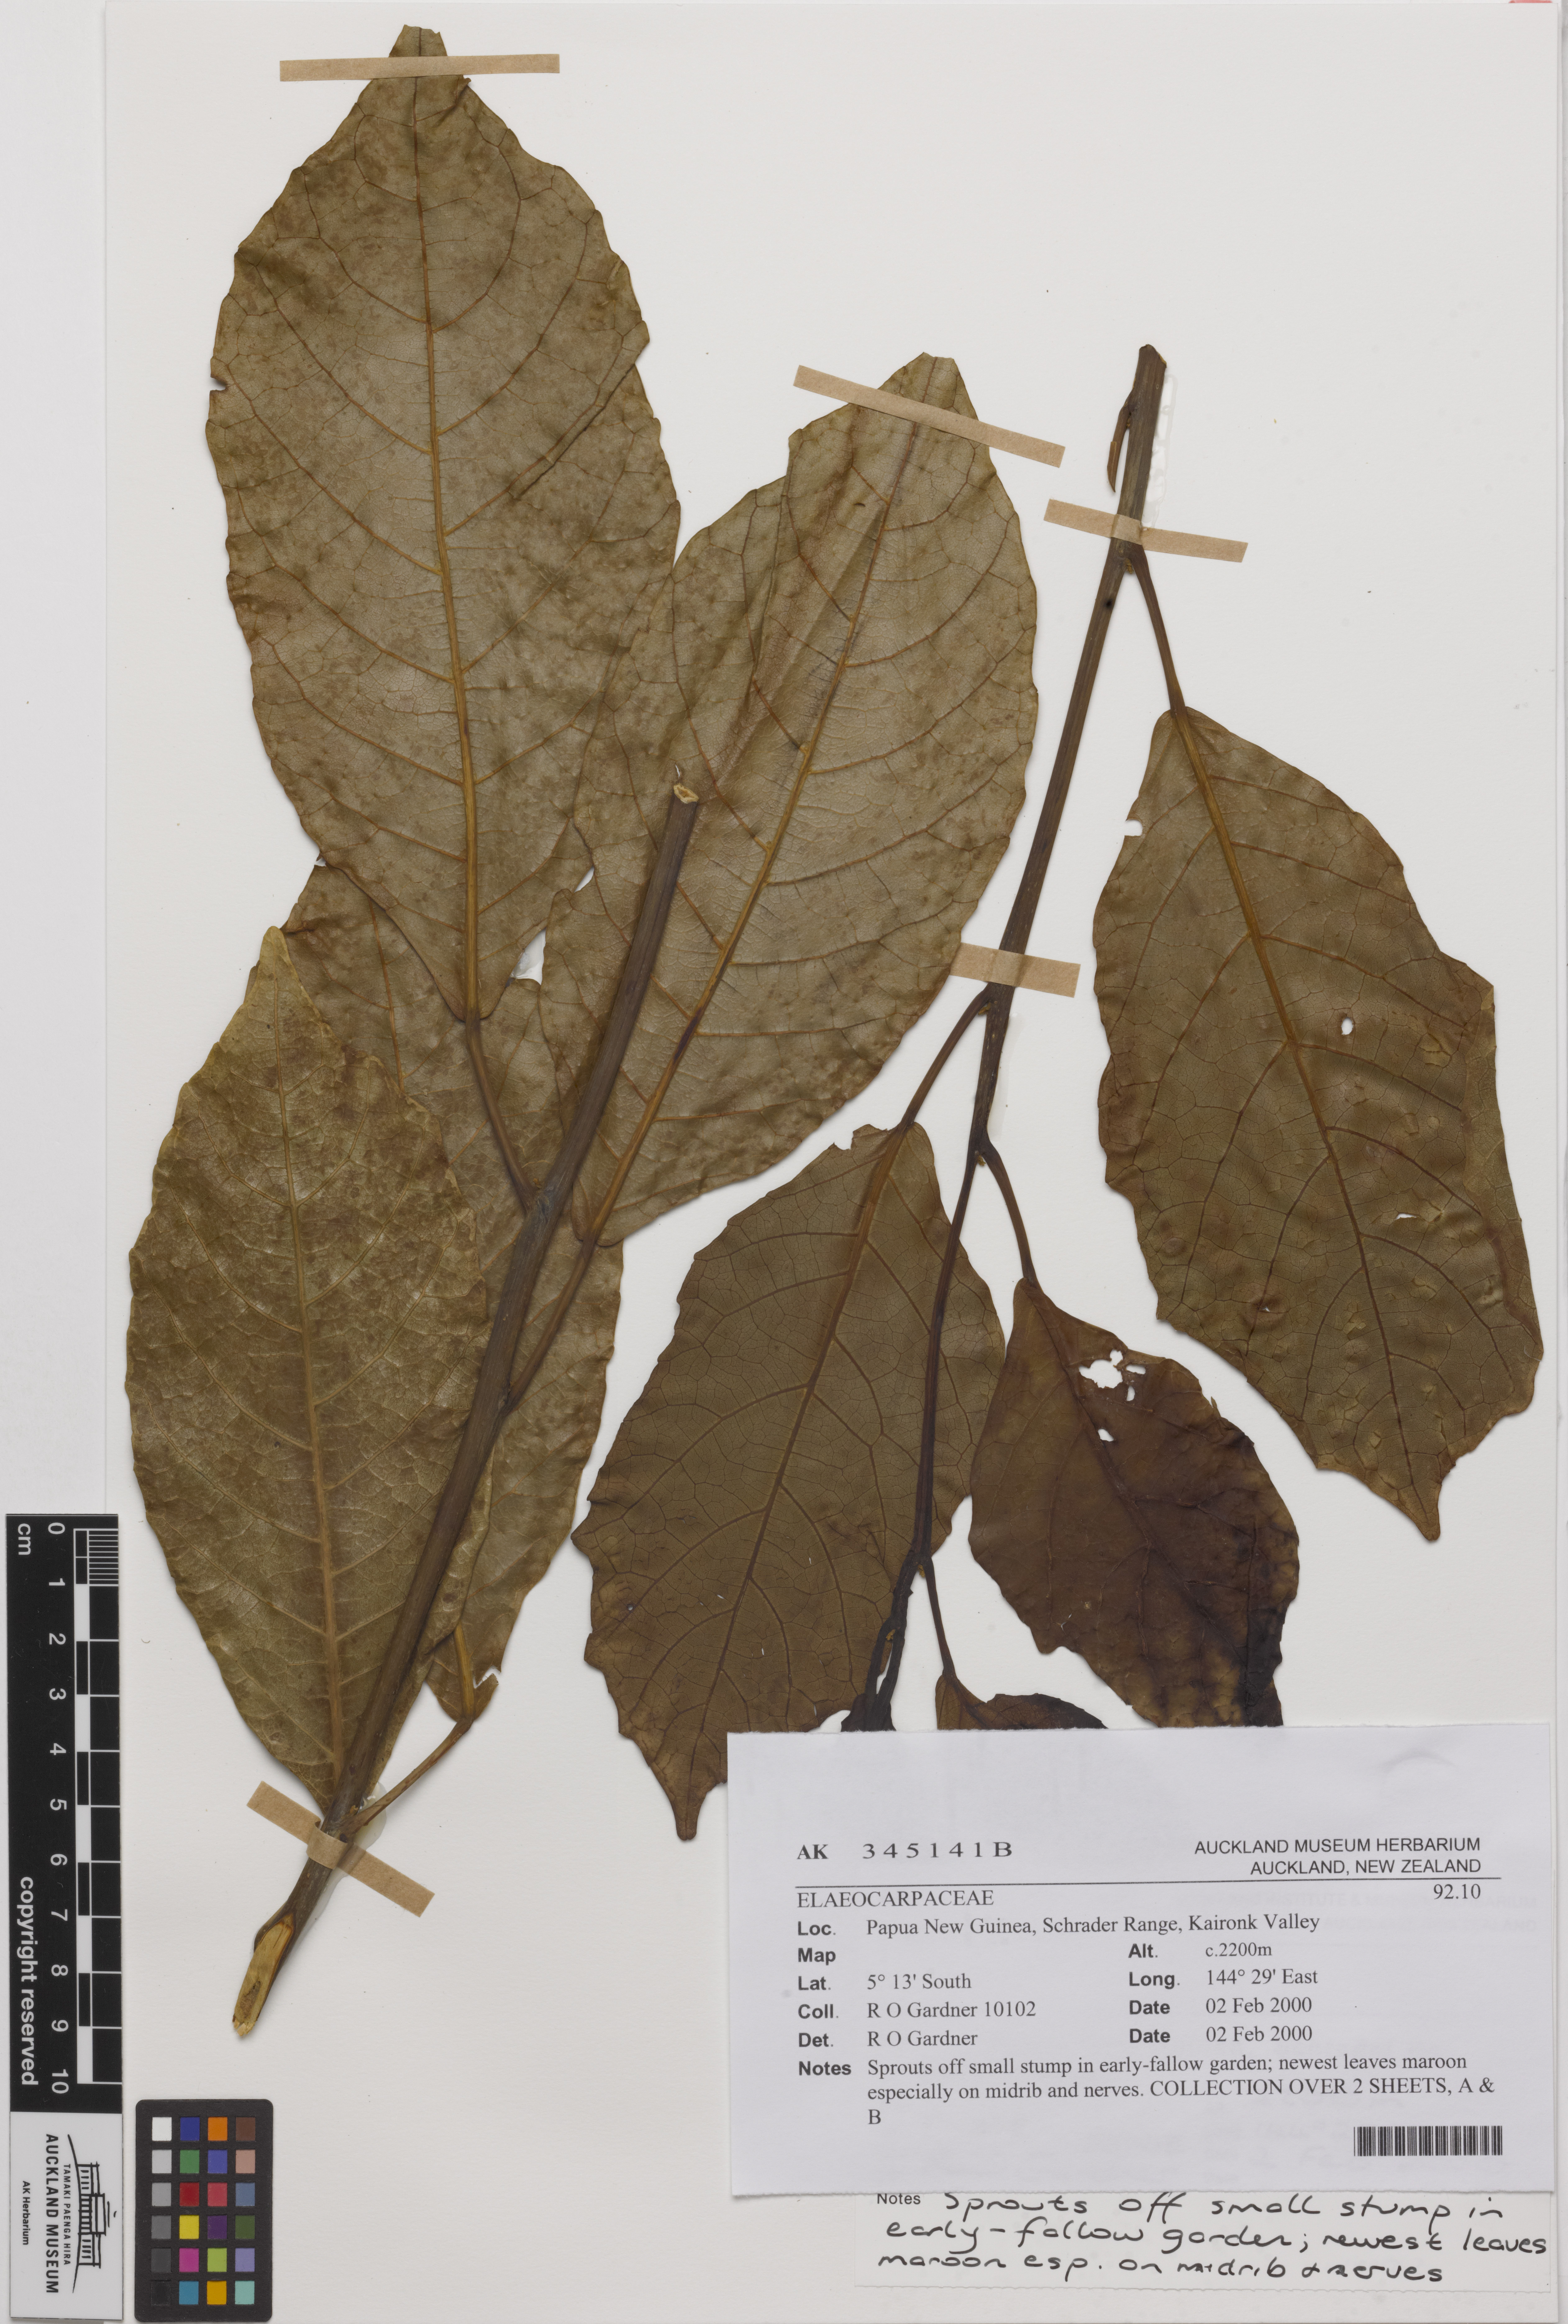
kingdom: Plantae
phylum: Tracheophyta
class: Magnoliopsida
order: Oxalidales
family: Elaeocarpaceae
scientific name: Elaeocarpaceae
